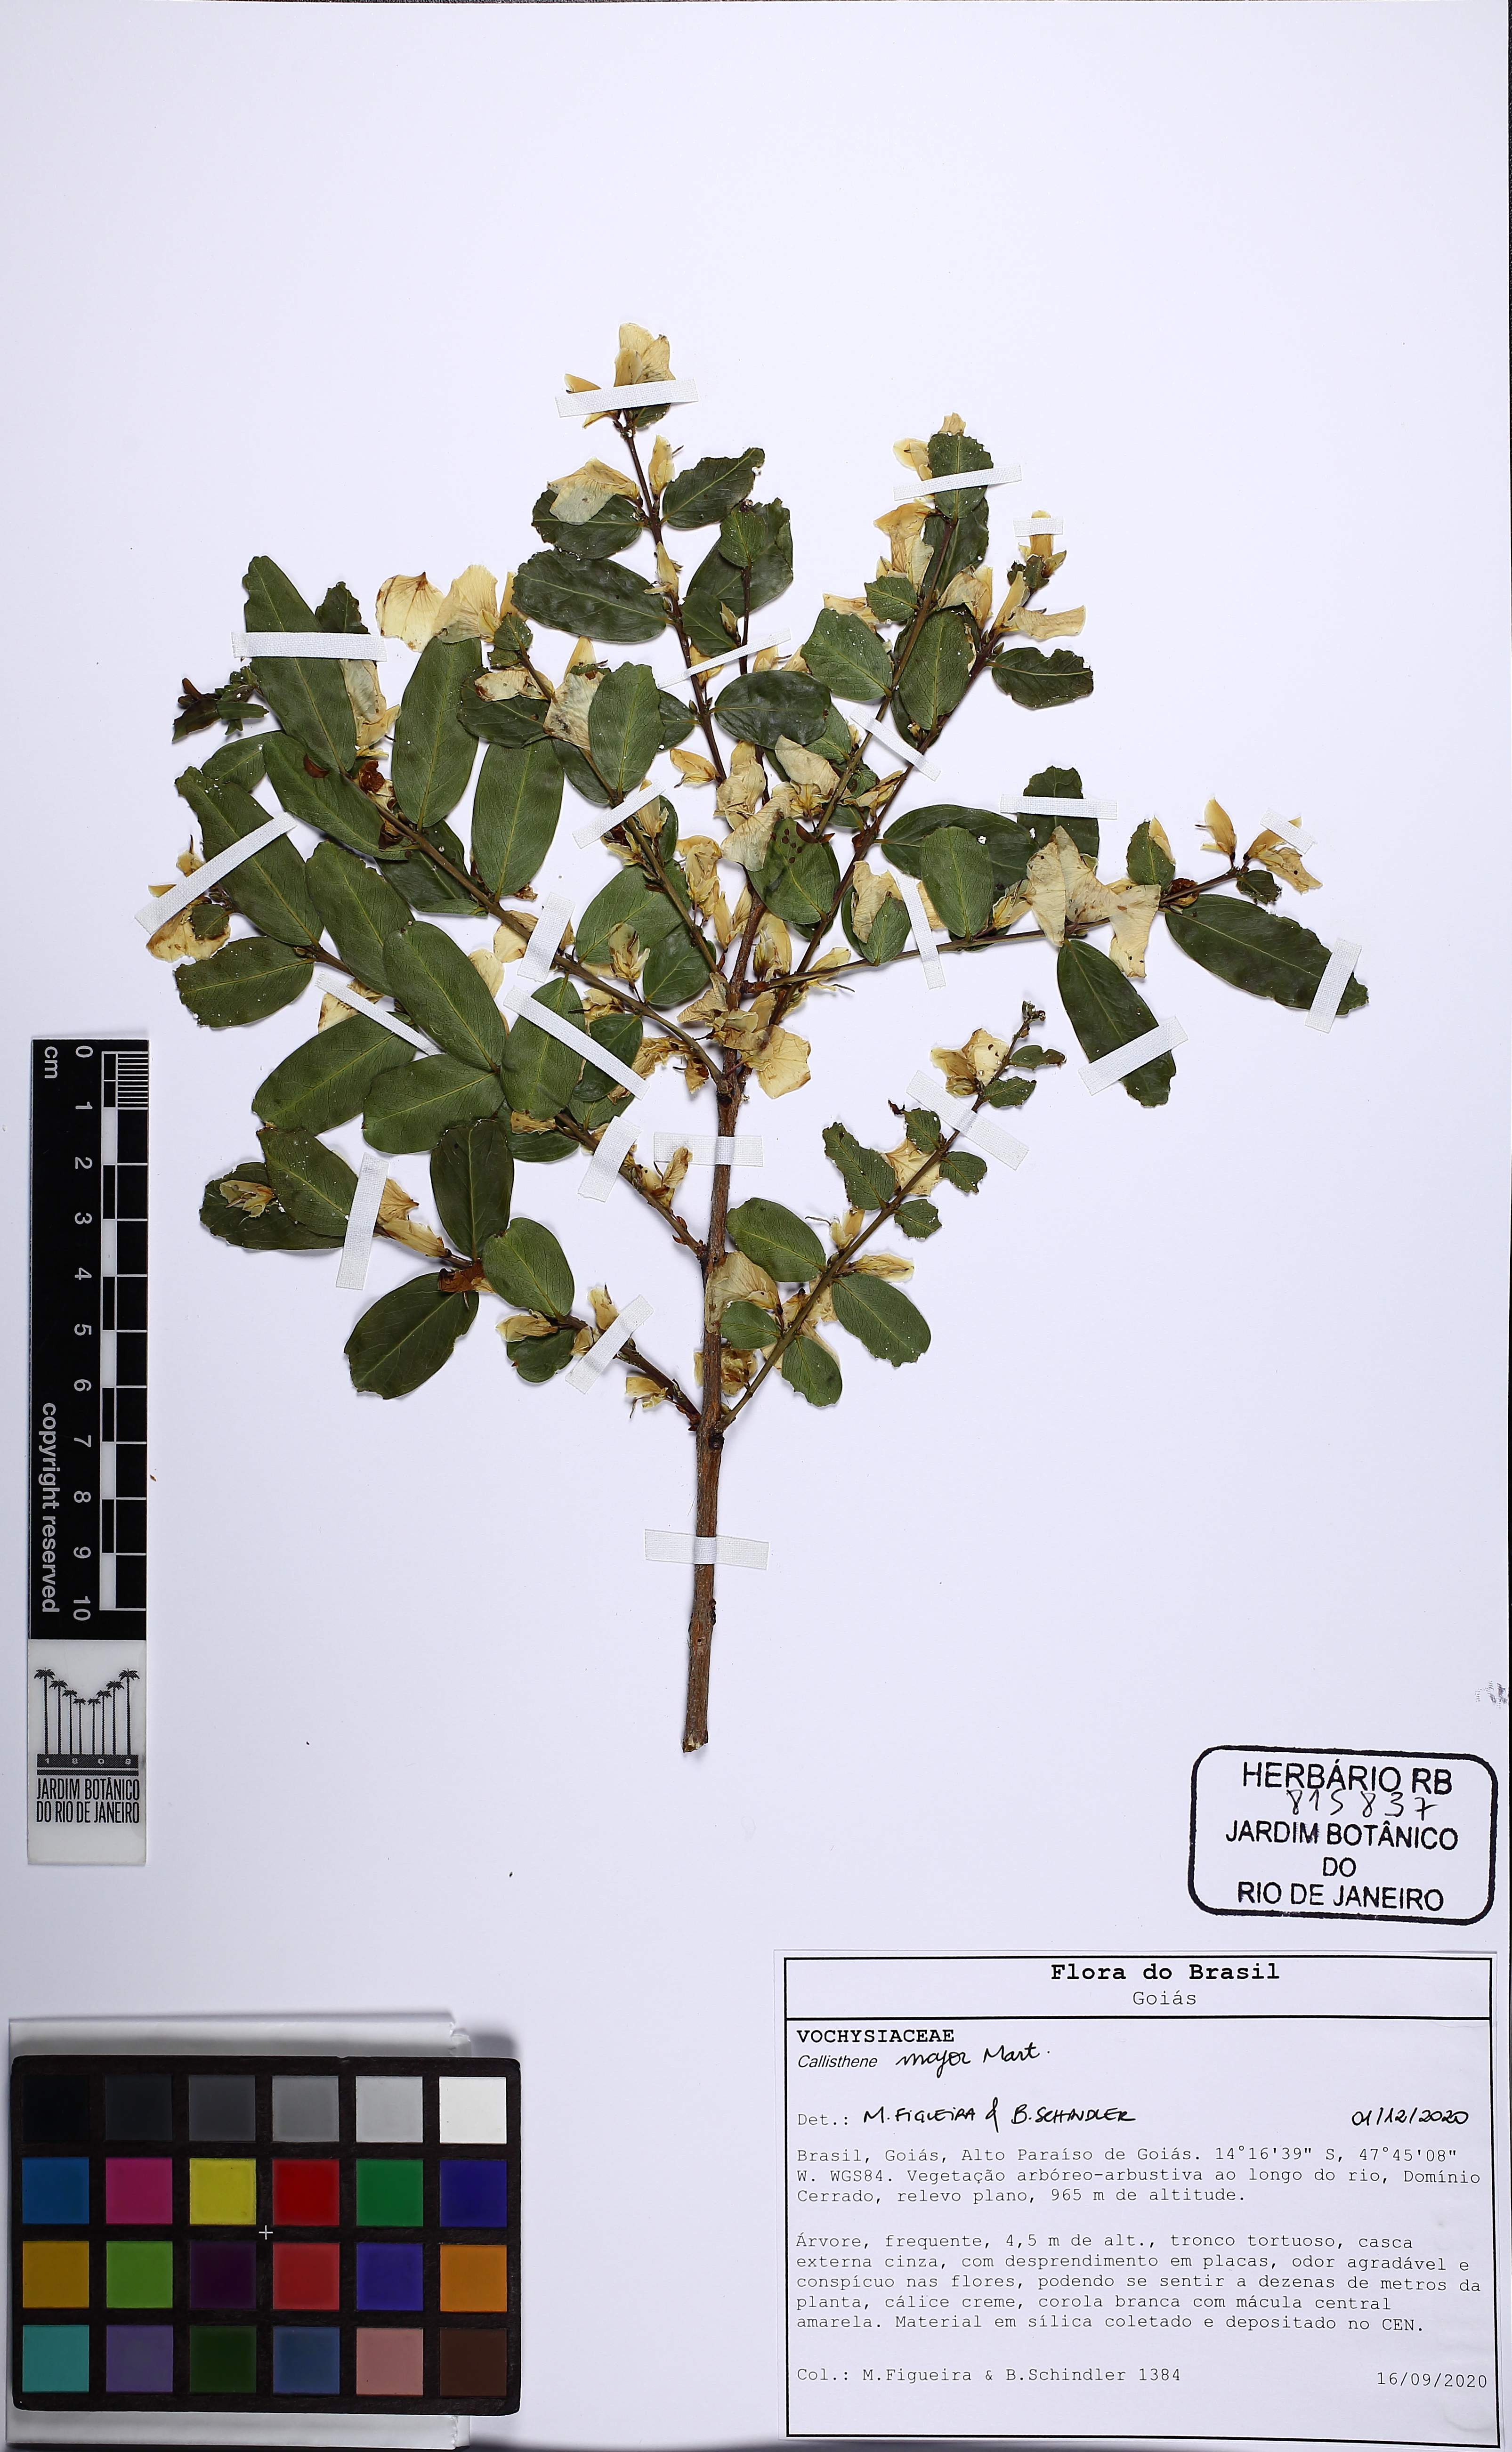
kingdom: Plantae
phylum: Tracheophyta
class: Magnoliopsida
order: Myrtales
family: Vochysiaceae
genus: Callisthene
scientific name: Callisthene major
